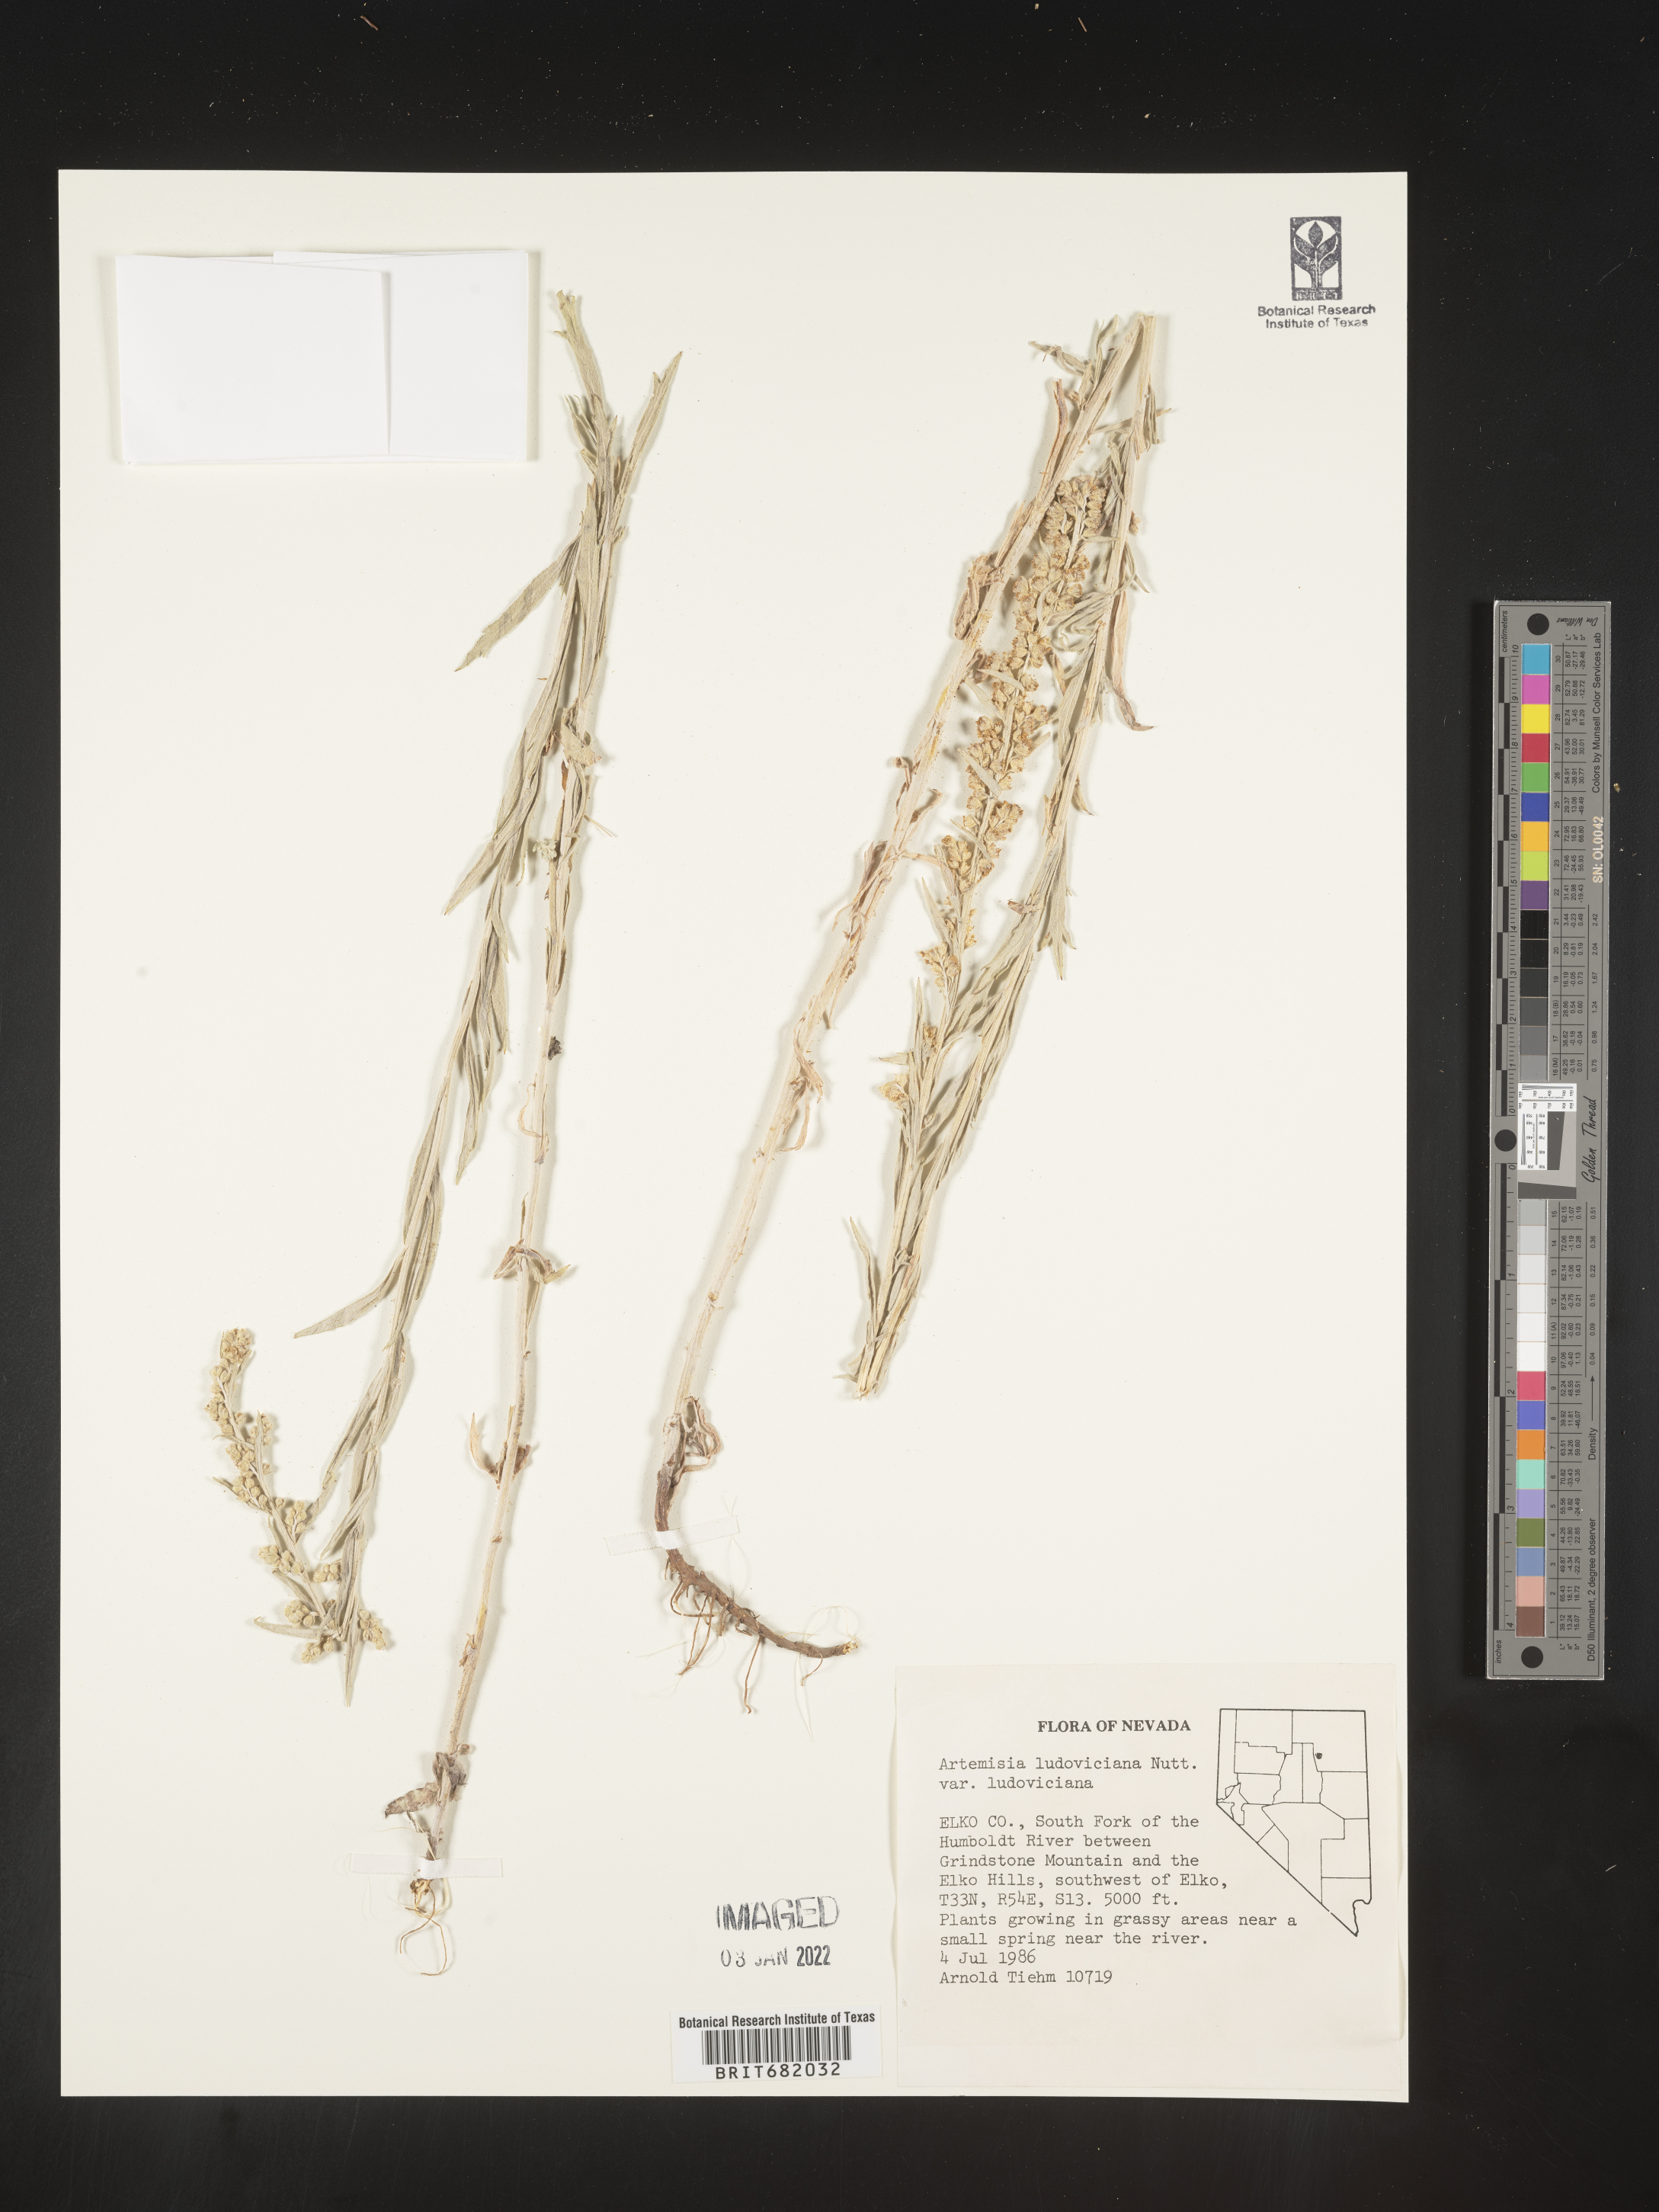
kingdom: Plantae
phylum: Tracheophyta
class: Magnoliopsida
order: Asterales
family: Asteraceae
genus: Artemisia
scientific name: Artemisia ludoviciana
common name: Western mugwort
